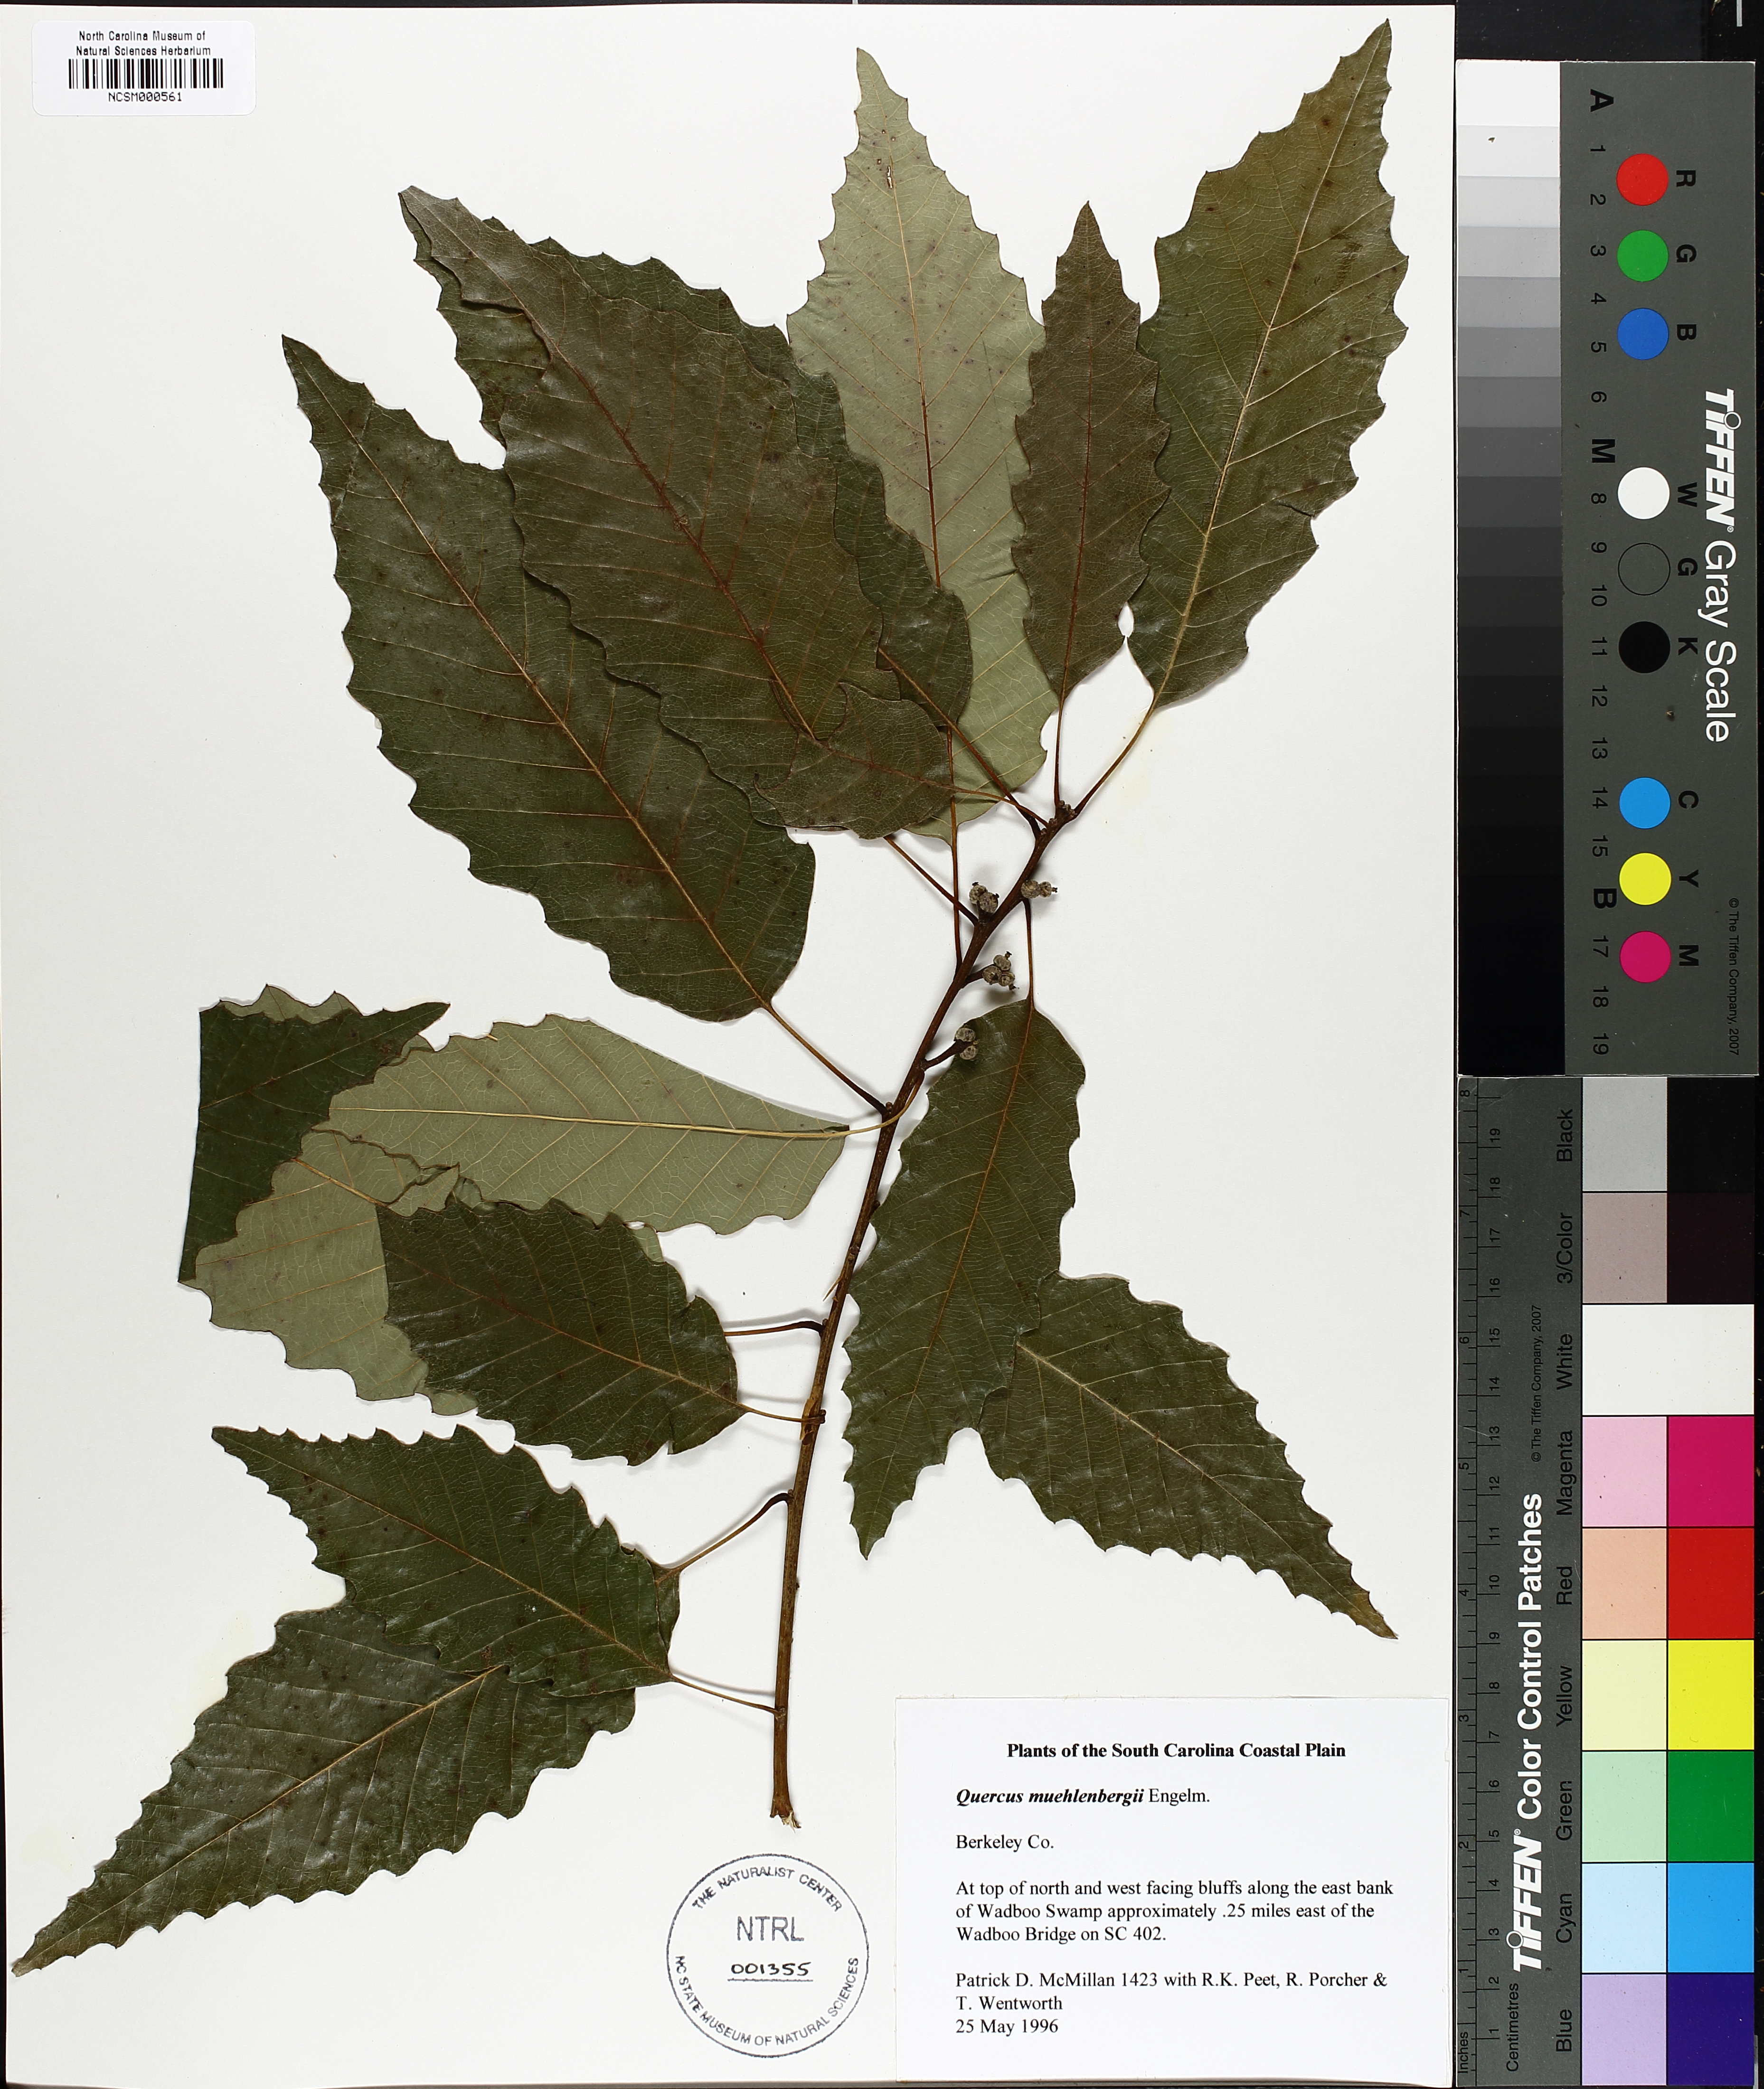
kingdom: Plantae
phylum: Tracheophyta
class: Magnoliopsida
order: Fagales
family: Fagaceae
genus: Quercus
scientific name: Quercus muehlenbergii
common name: Chinkapin oak
